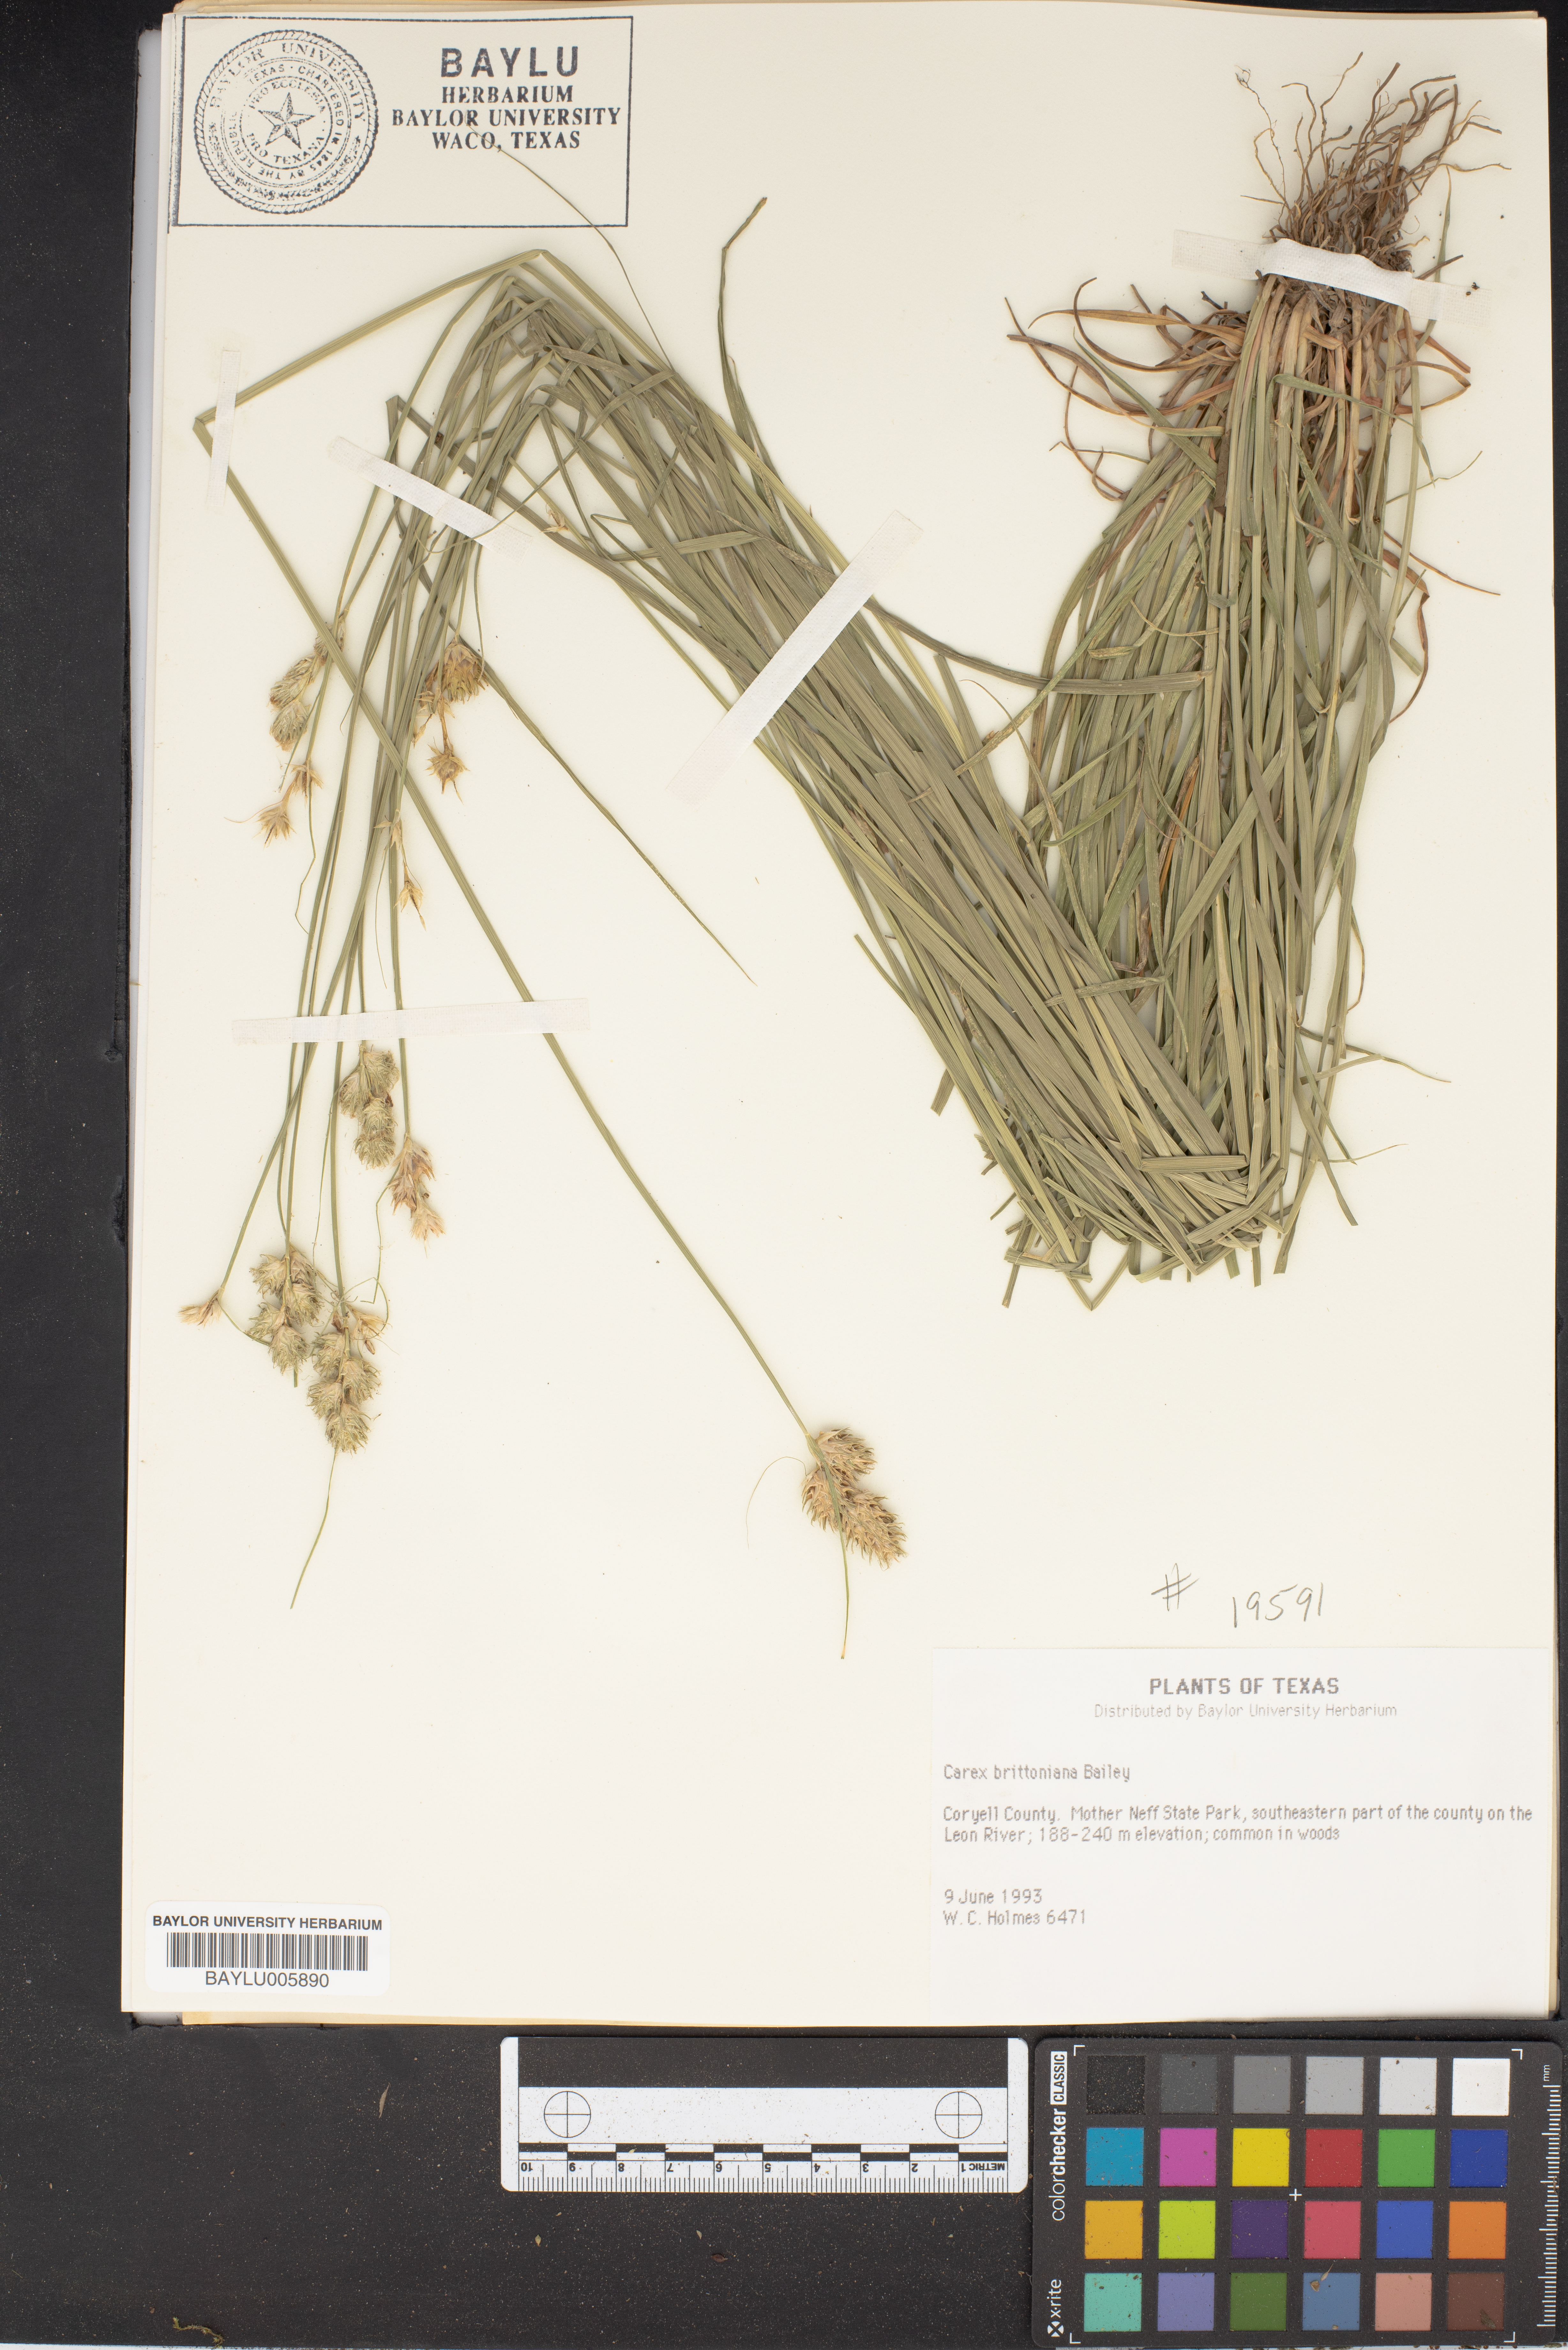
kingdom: Plantae
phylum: Tracheophyta
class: Liliopsida
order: Poales
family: Cyperaceae
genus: Carex
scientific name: Carex tetrastachya
